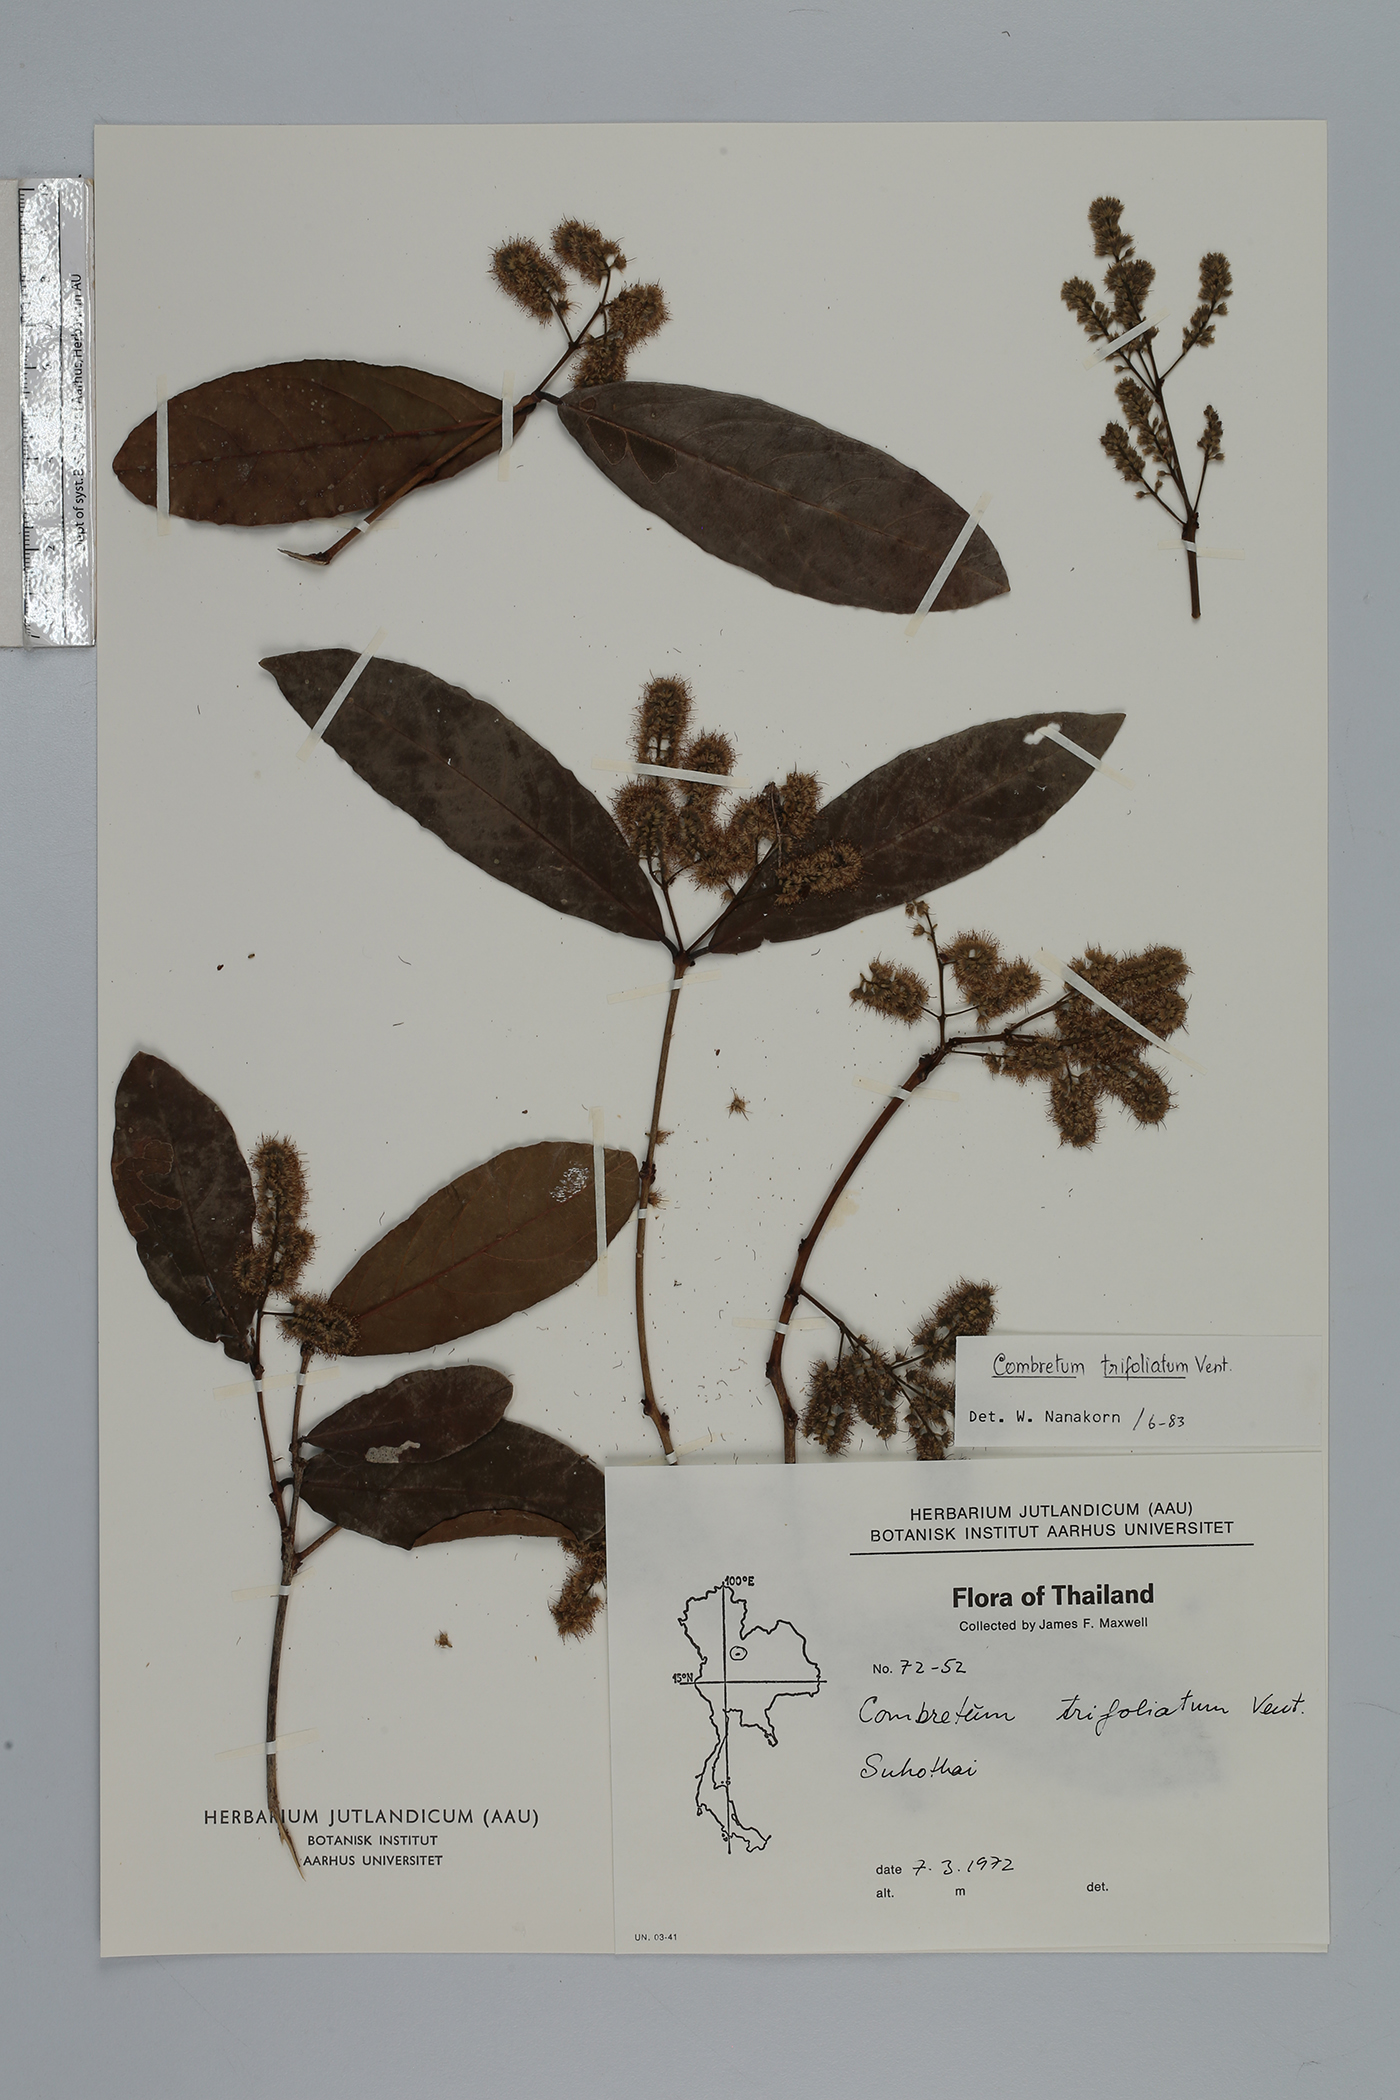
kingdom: Plantae
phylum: Tracheophyta
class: Magnoliopsida
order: Myrtales
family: Combretaceae
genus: Combretum
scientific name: Combretum trifoliatum
